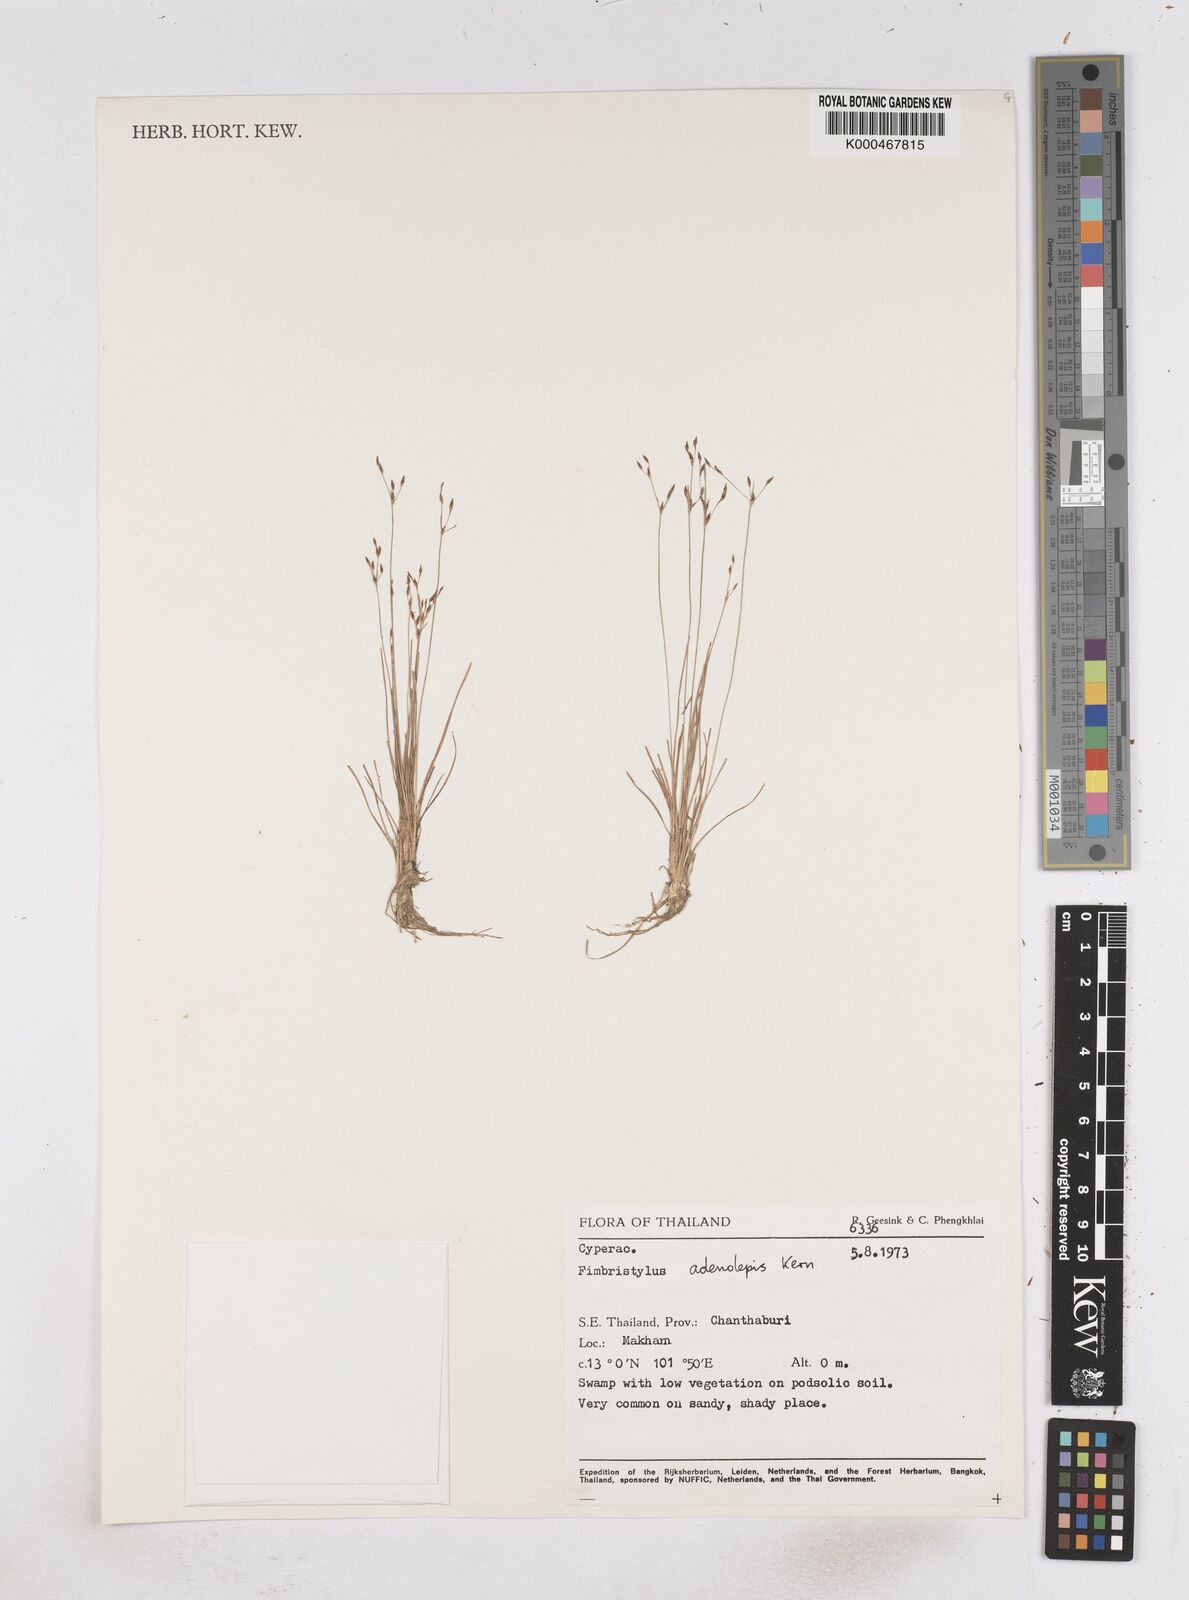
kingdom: Plantae
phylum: Tracheophyta
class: Liliopsida
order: Poales
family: Cyperaceae
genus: Fimbristylis
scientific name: Fimbristylis adenolepis
